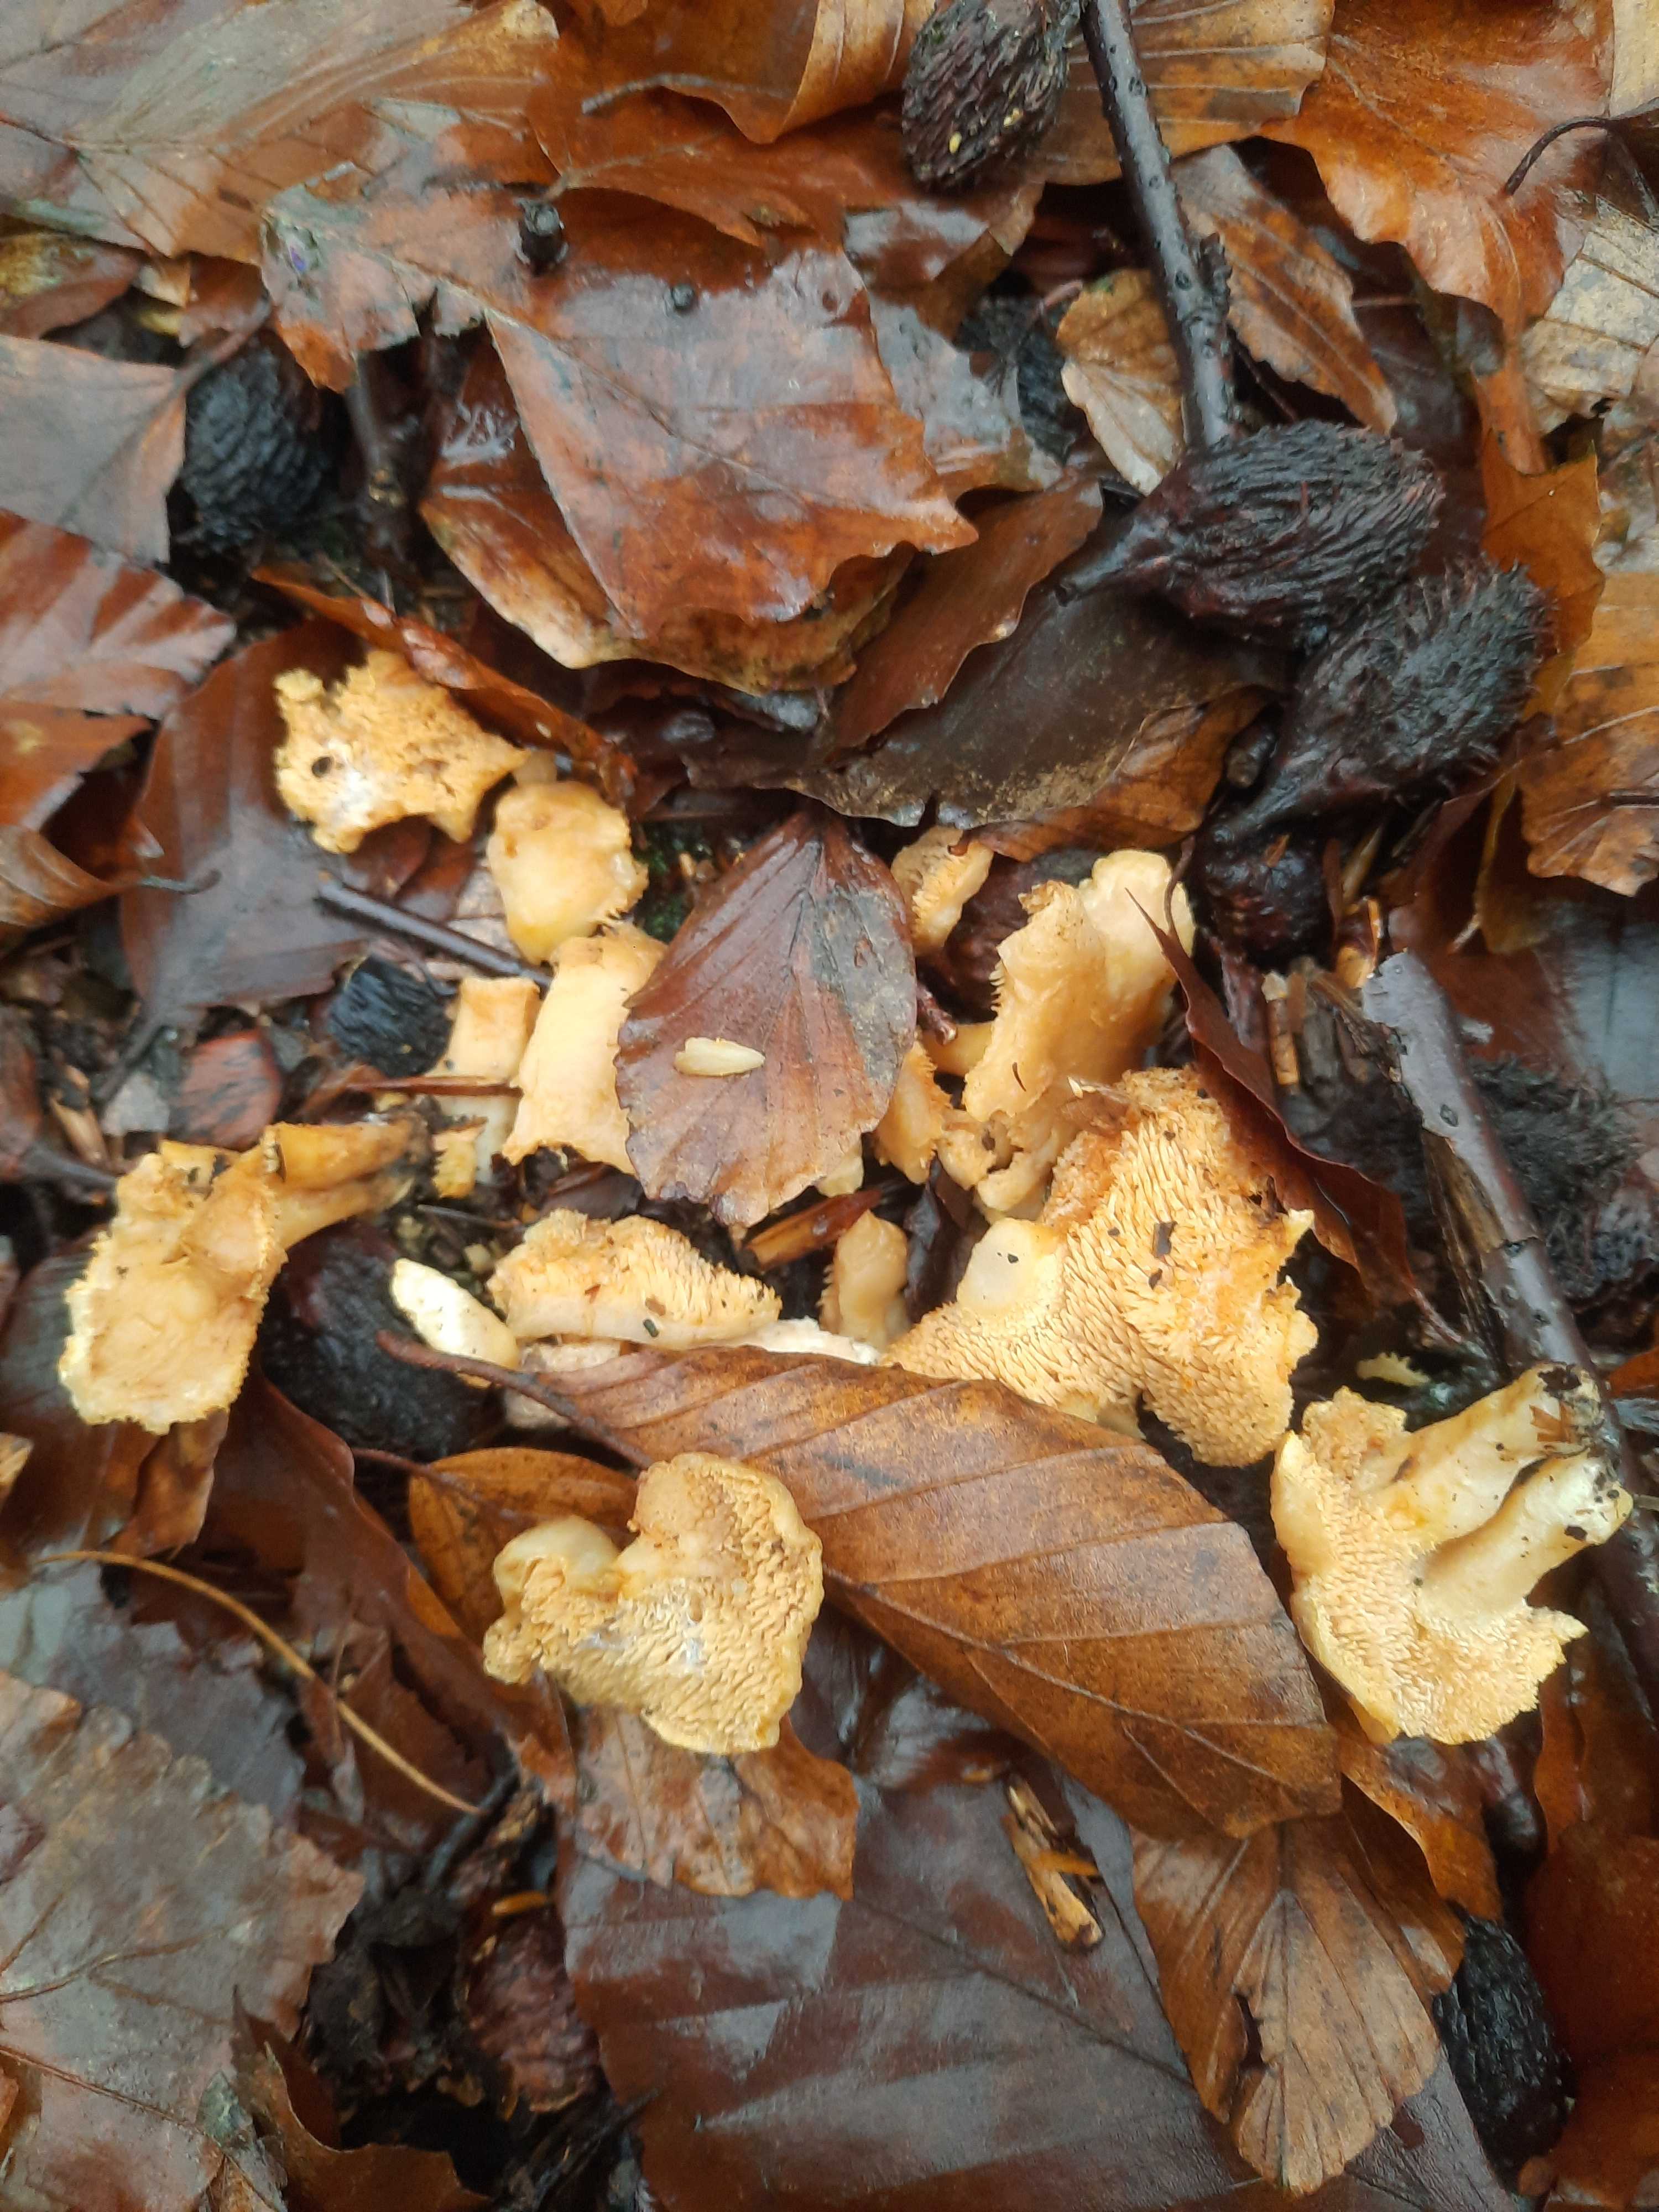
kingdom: Fungi
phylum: Basidiomycota
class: Agaricomycetes
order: Cantharellales
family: Hydnaceae
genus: Hydnum
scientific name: Hydnum rufescens
